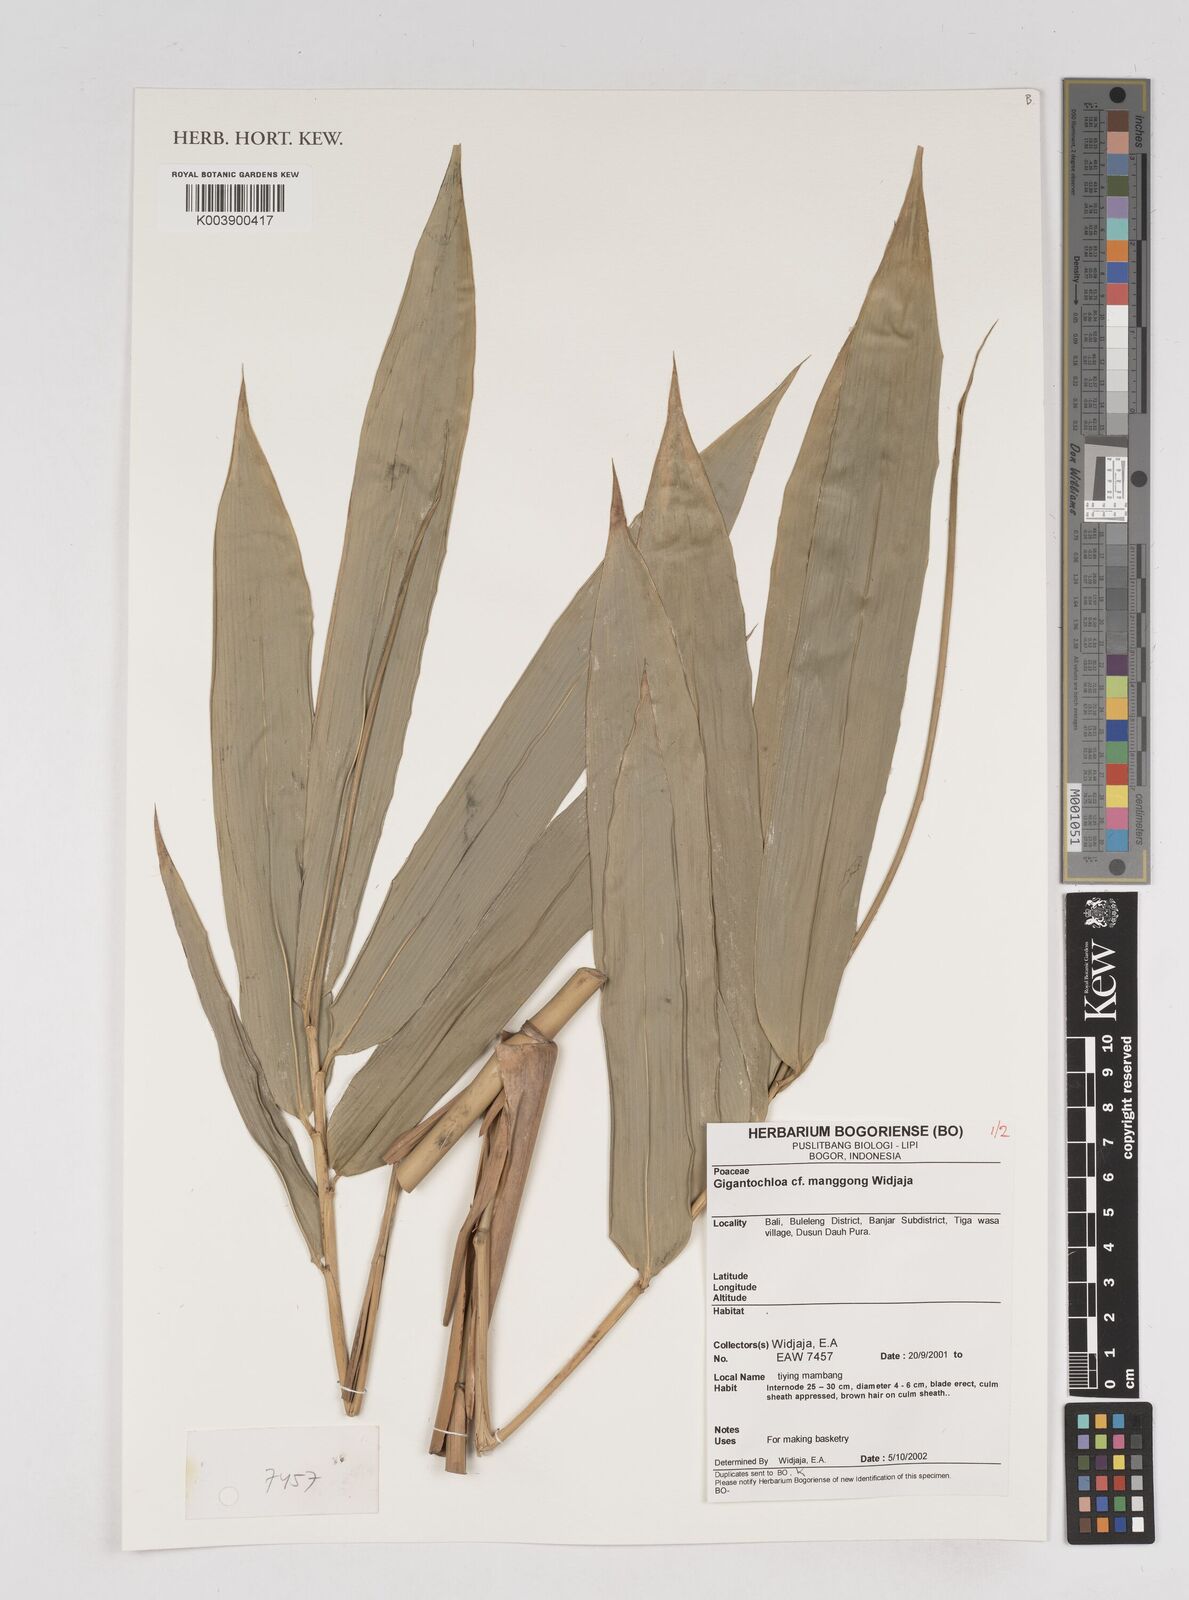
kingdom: Plantae
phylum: Tracheophyta
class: Liliopsida
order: Poales
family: Poaceae
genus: Gigantochloa
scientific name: Gigantochloa manggong
